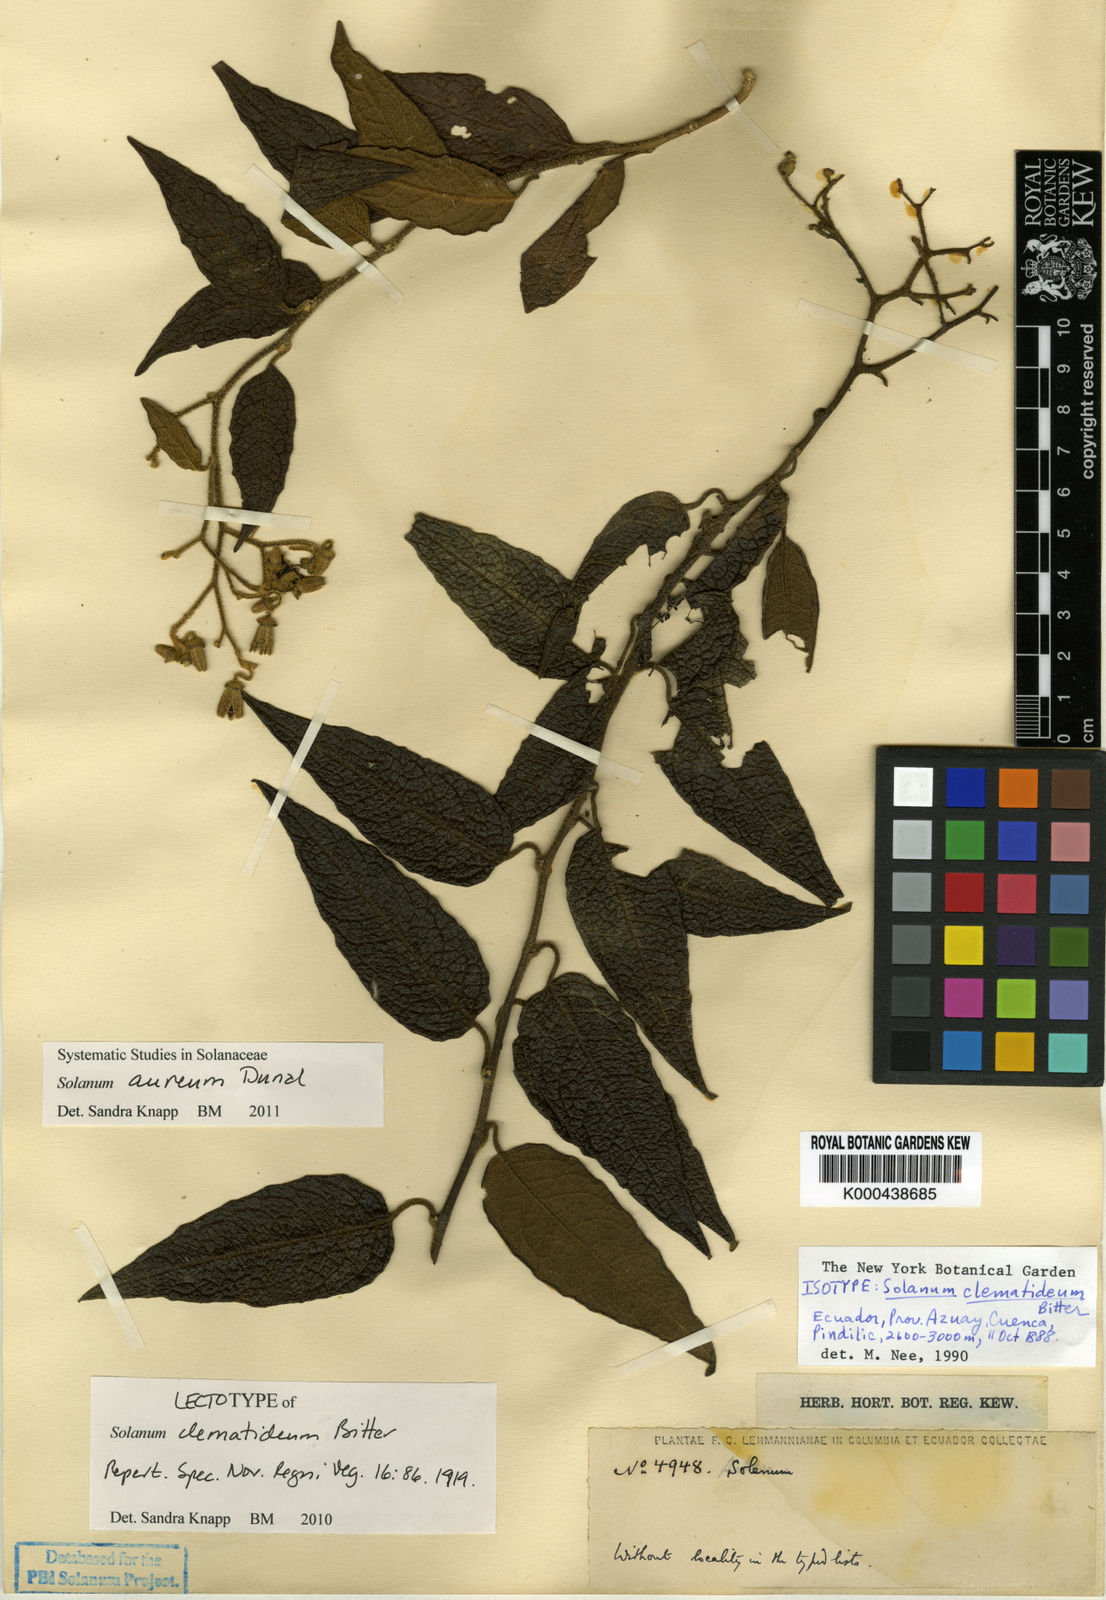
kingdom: Plantae
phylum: Tracheophyta
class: Magnoliopsida
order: Solanales
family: Solanaceae
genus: Solanum
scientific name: Solanum aureum
